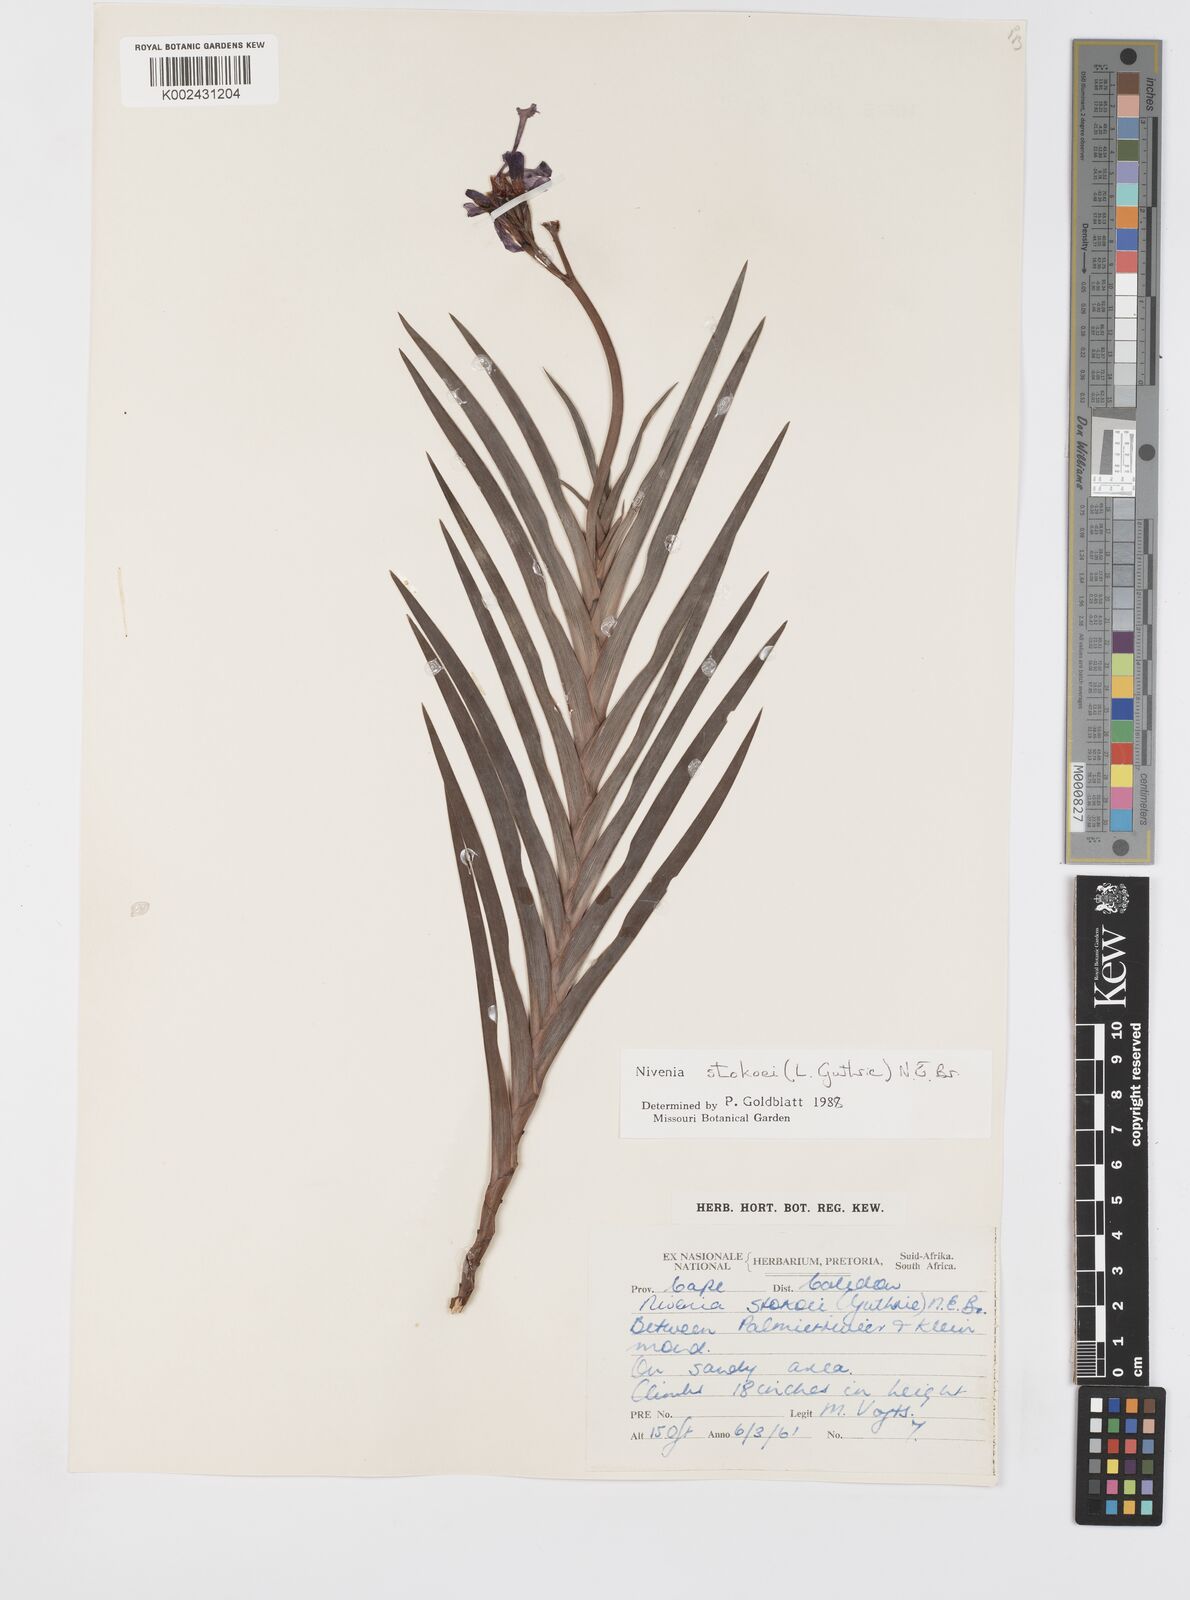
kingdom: Plantae
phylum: Tracheophyta
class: Liliopsida
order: Asparagales
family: Iridaceae
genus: Nivenia
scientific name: Nivenia stokoei
